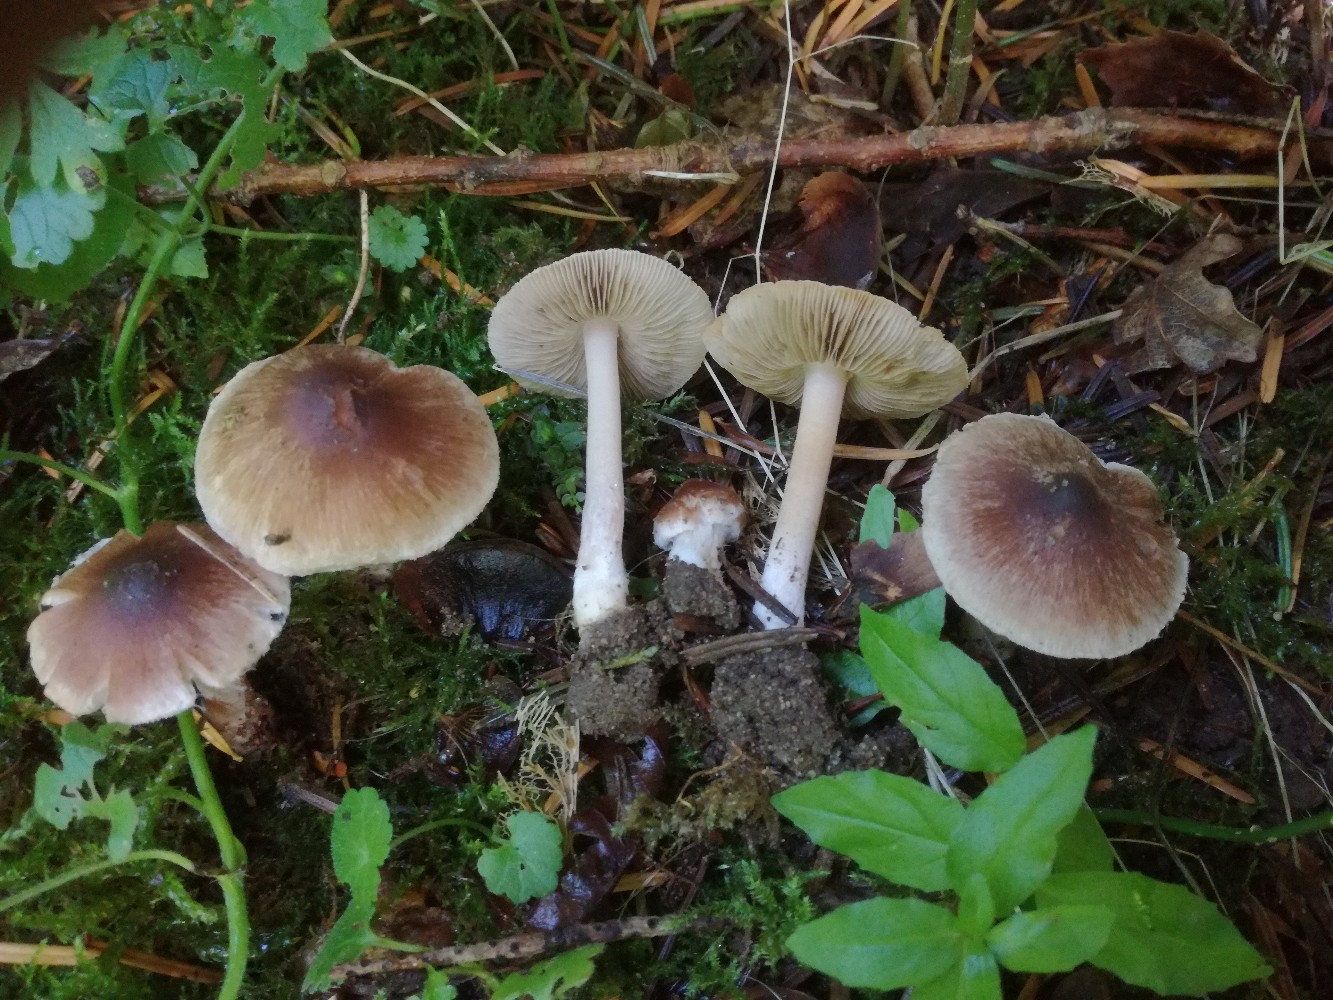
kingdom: Fungi
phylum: Basidiomycota
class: Agaricomycetes
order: Agaricales
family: Inocybaceae
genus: Inocybe
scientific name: Inocybe
